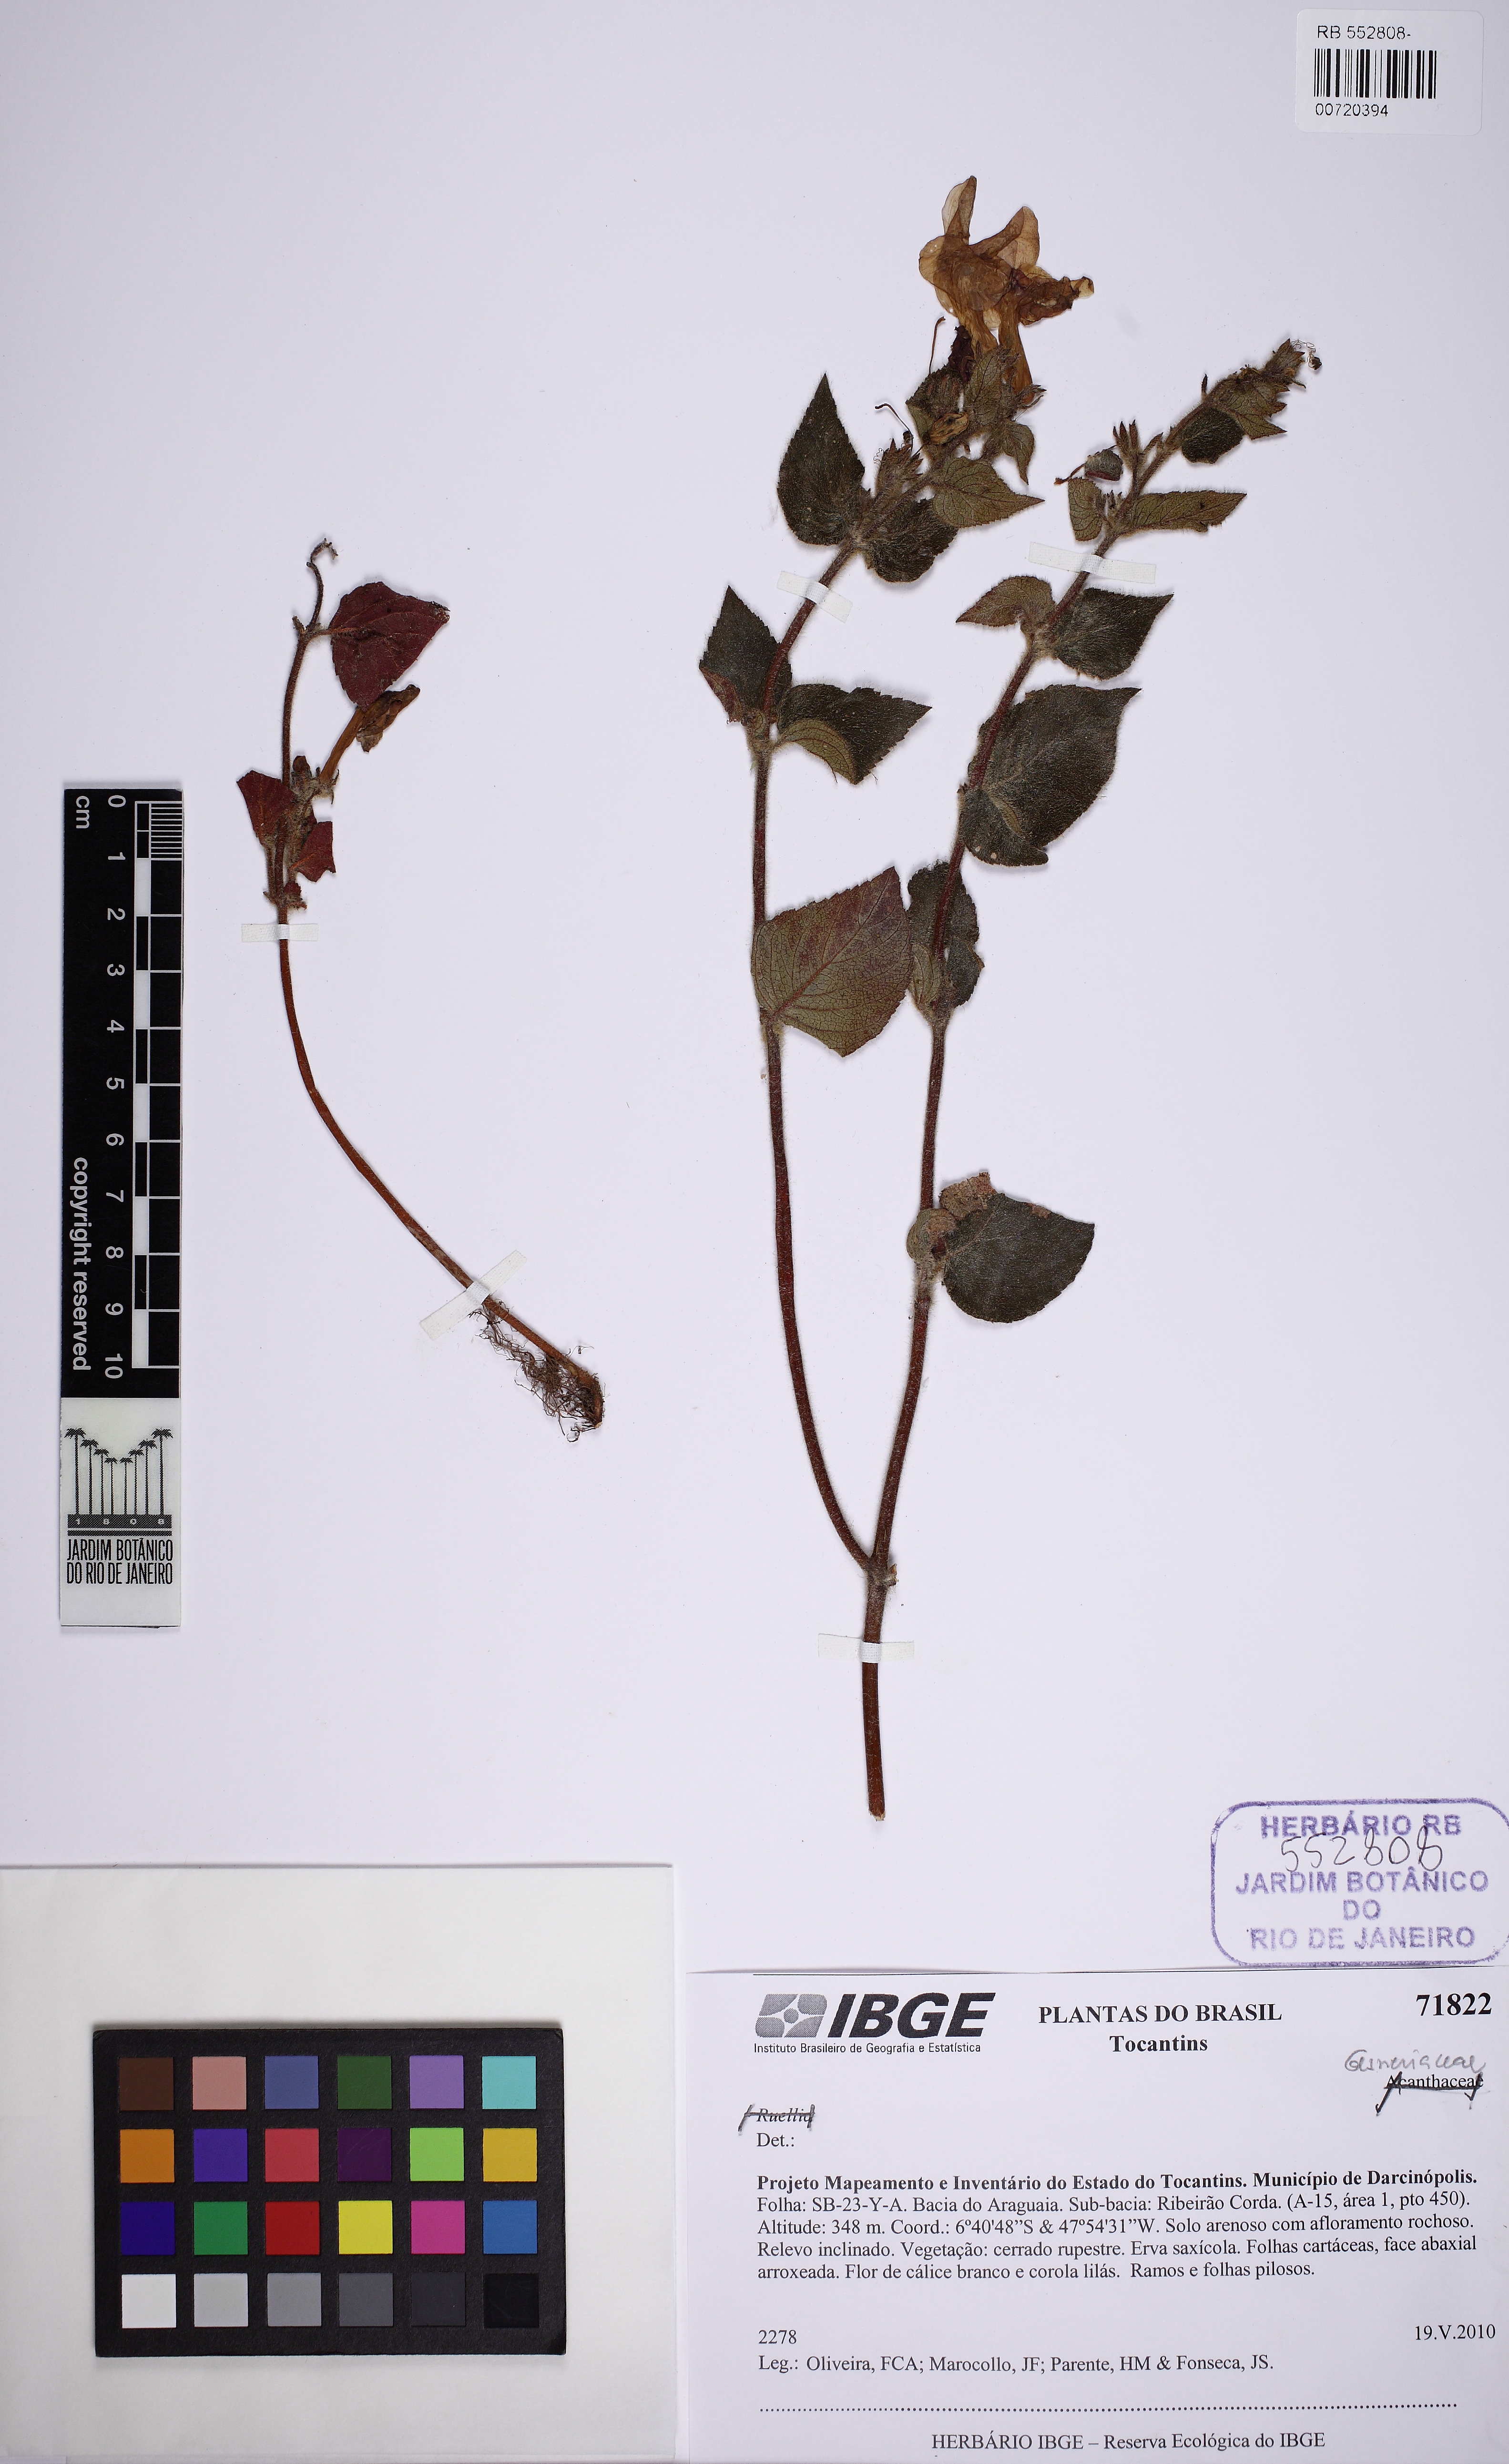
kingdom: Plantae
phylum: Tracheophyta
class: Magnoliopsida
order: Lamiales
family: Gesneriaceae
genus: Mandirola
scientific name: Mandirola
